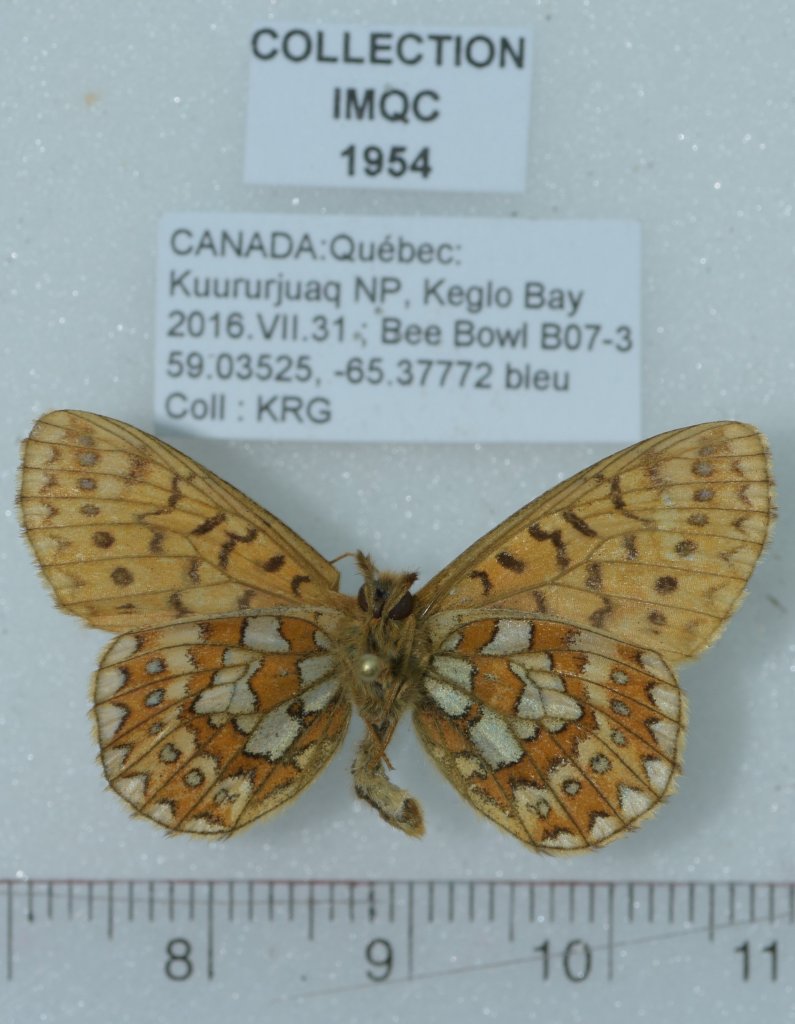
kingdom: Animalia
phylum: Arthropoda
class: Insecta
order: Lepidoptera
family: Nymphalidae
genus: Boloria
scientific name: Boloria eunomia
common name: Bog Fritillary
